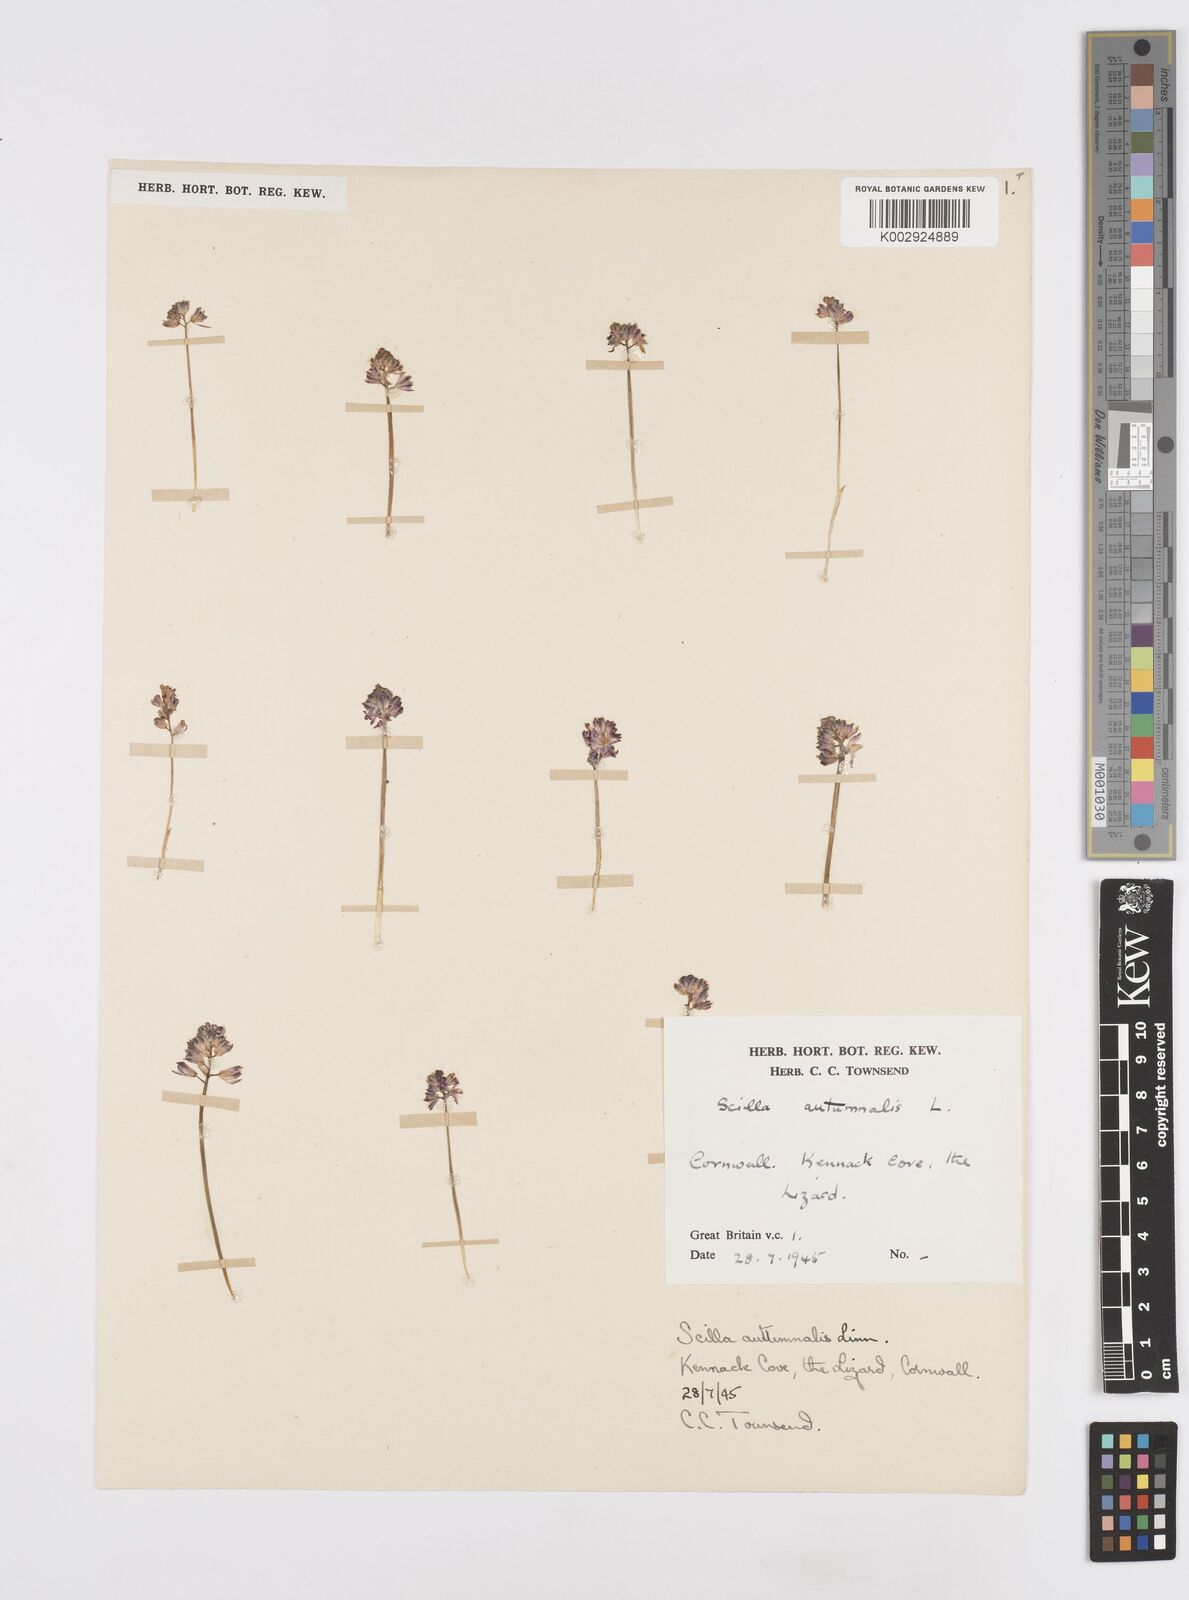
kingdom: Plantae
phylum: Tracheophyta
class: Liliopsida
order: Asparagales
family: Asparagaceae
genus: Prospero
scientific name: Prospero autumnale
